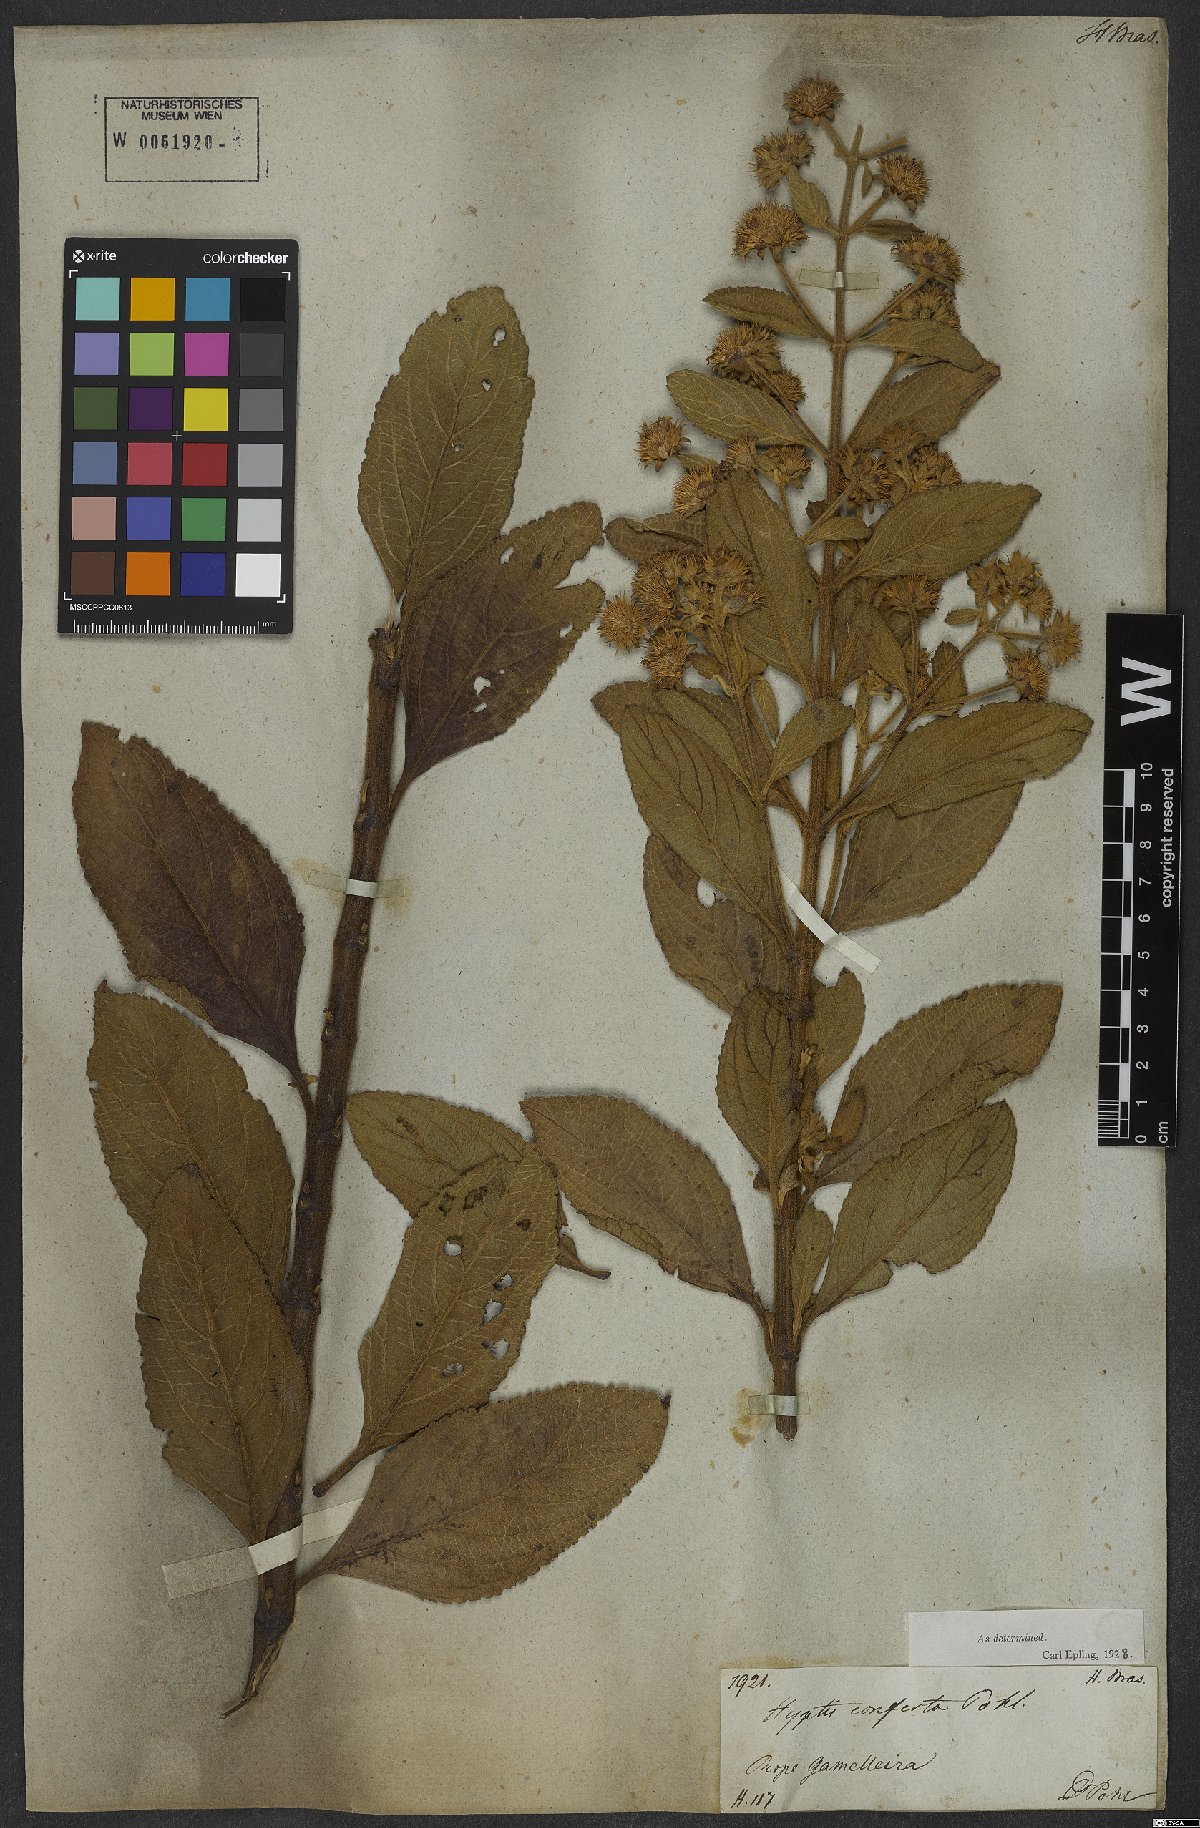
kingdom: Plantae
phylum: Tracheophyta
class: Magnoliopsida
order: Lamiales
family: Lamiaceae
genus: Hyptis
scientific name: Hyptis conferta
